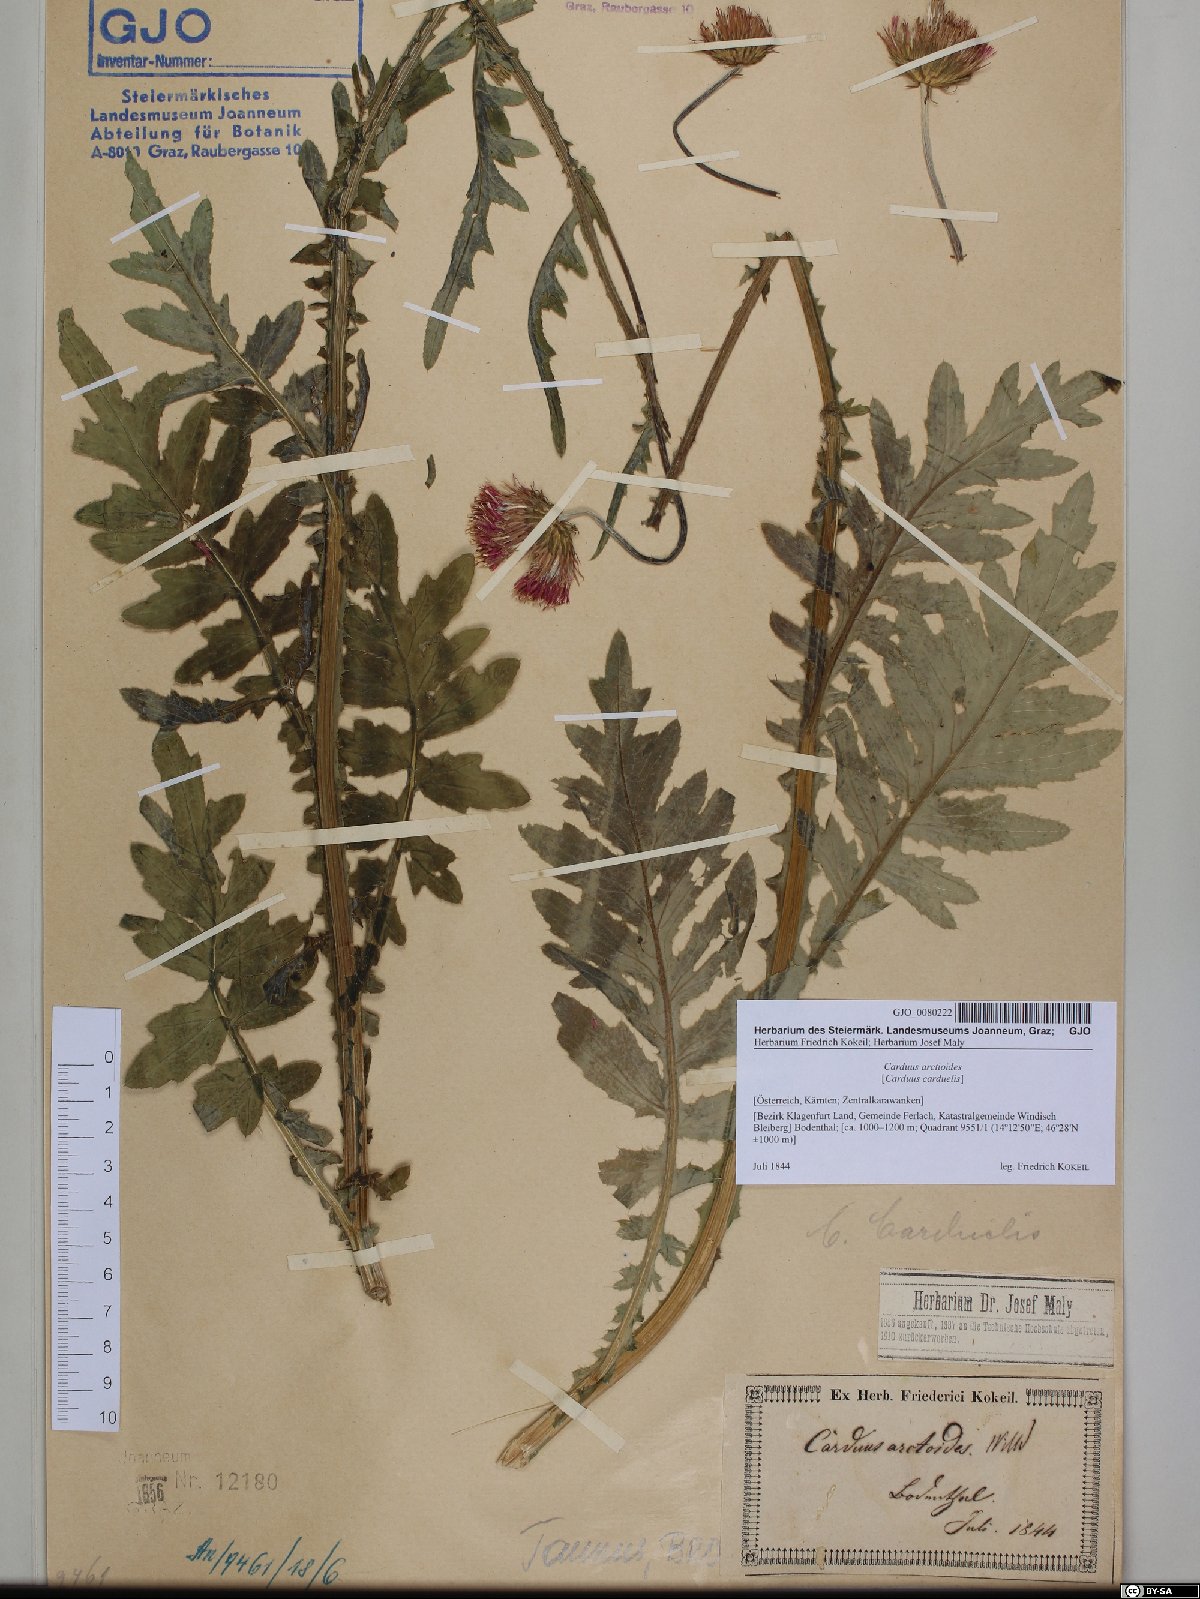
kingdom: Plantae
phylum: Tracheophyta
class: Magnoliopsida
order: Asterales
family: Asteraceae
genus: Carduus
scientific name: Carduus carduelis
